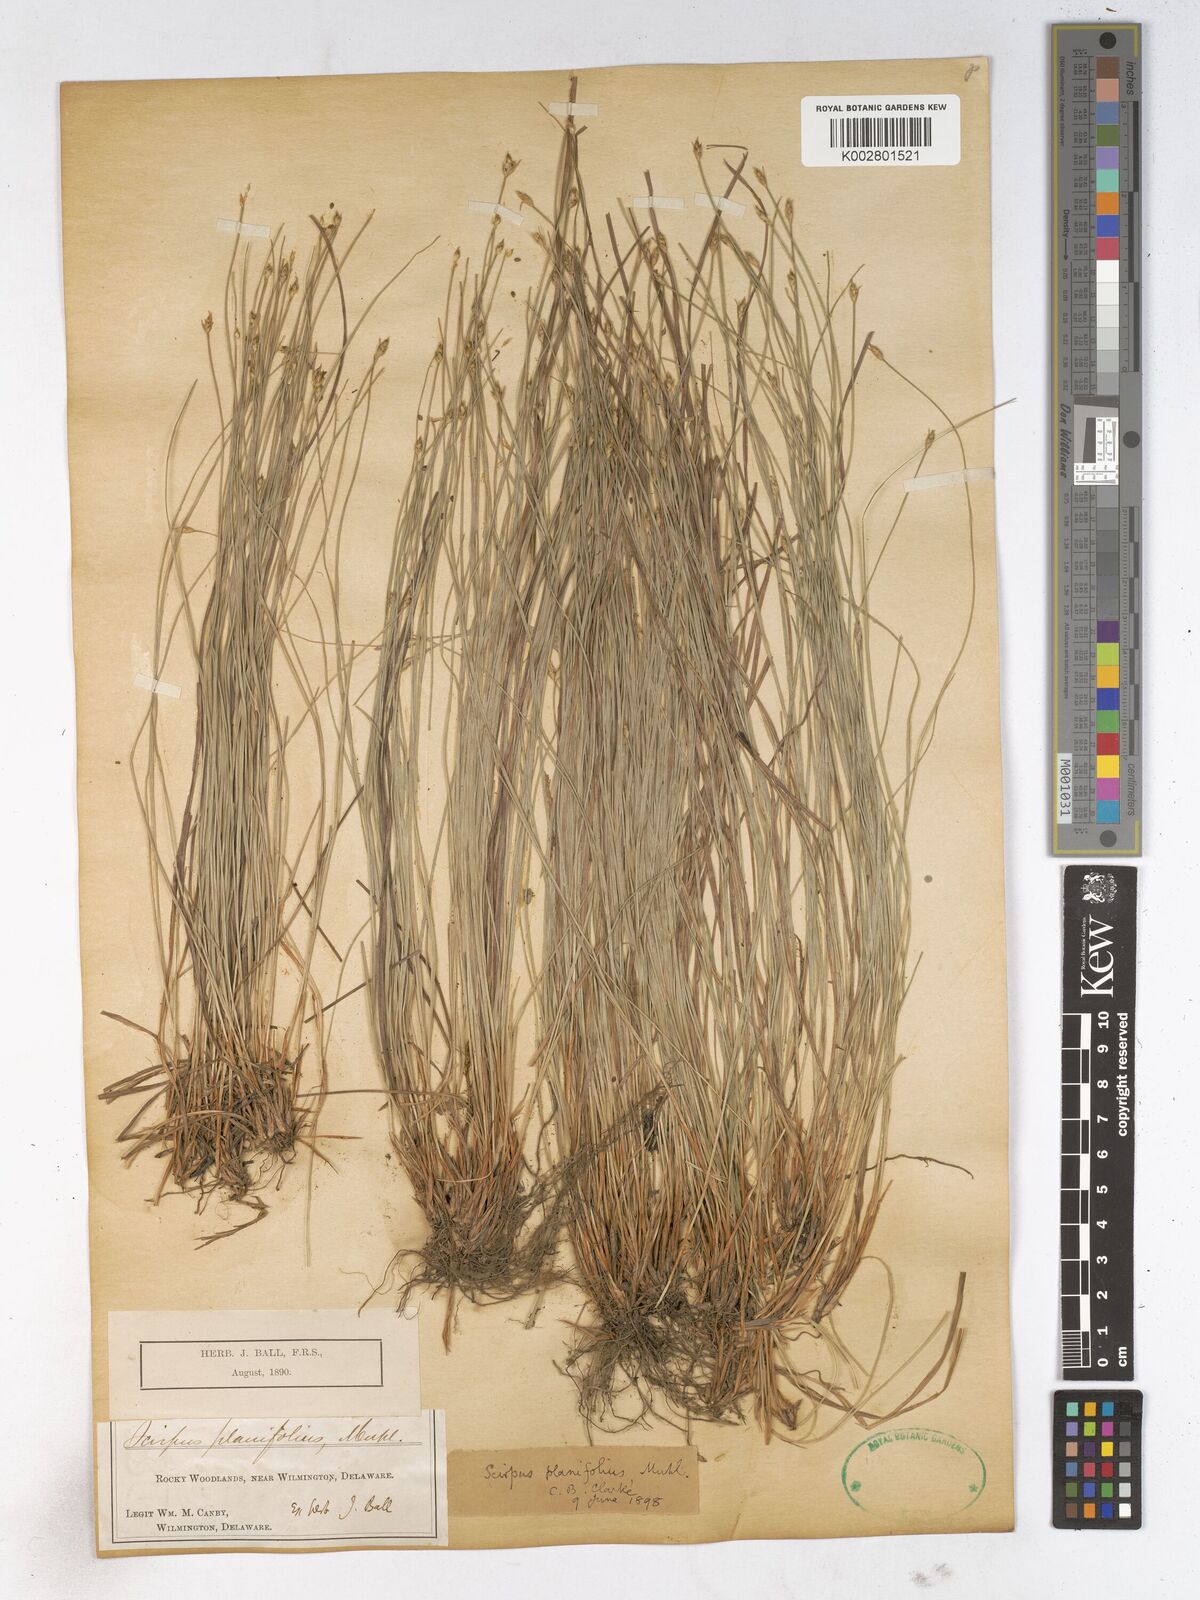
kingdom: Plantae
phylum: Tracheophyta
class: Liliopsida
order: Poales
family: Cyperaceae
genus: Trichophorum
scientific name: Trichophorum planifolium
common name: Bashful bulrush
